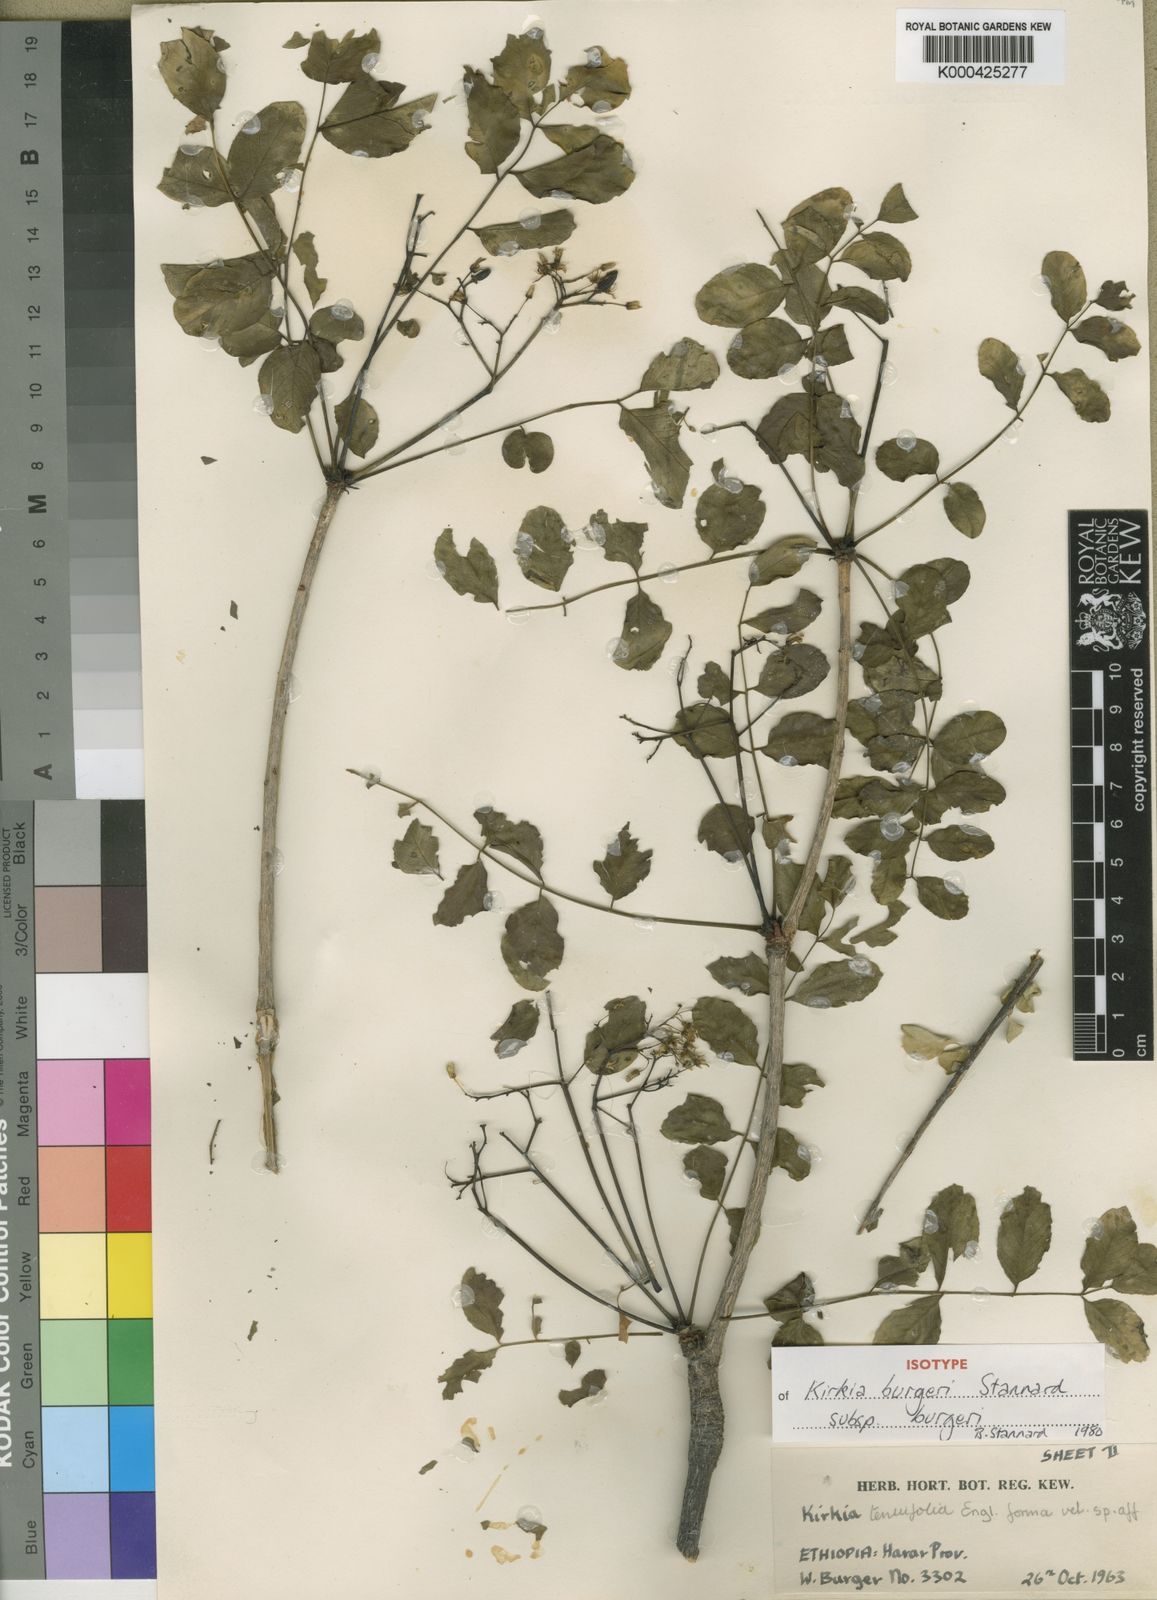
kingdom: Plantae
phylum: Tracheophyta
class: Magnoliopsida
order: Sapindales
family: Kirkiaceae
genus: Kirkia
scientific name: Kirkia burgeri
